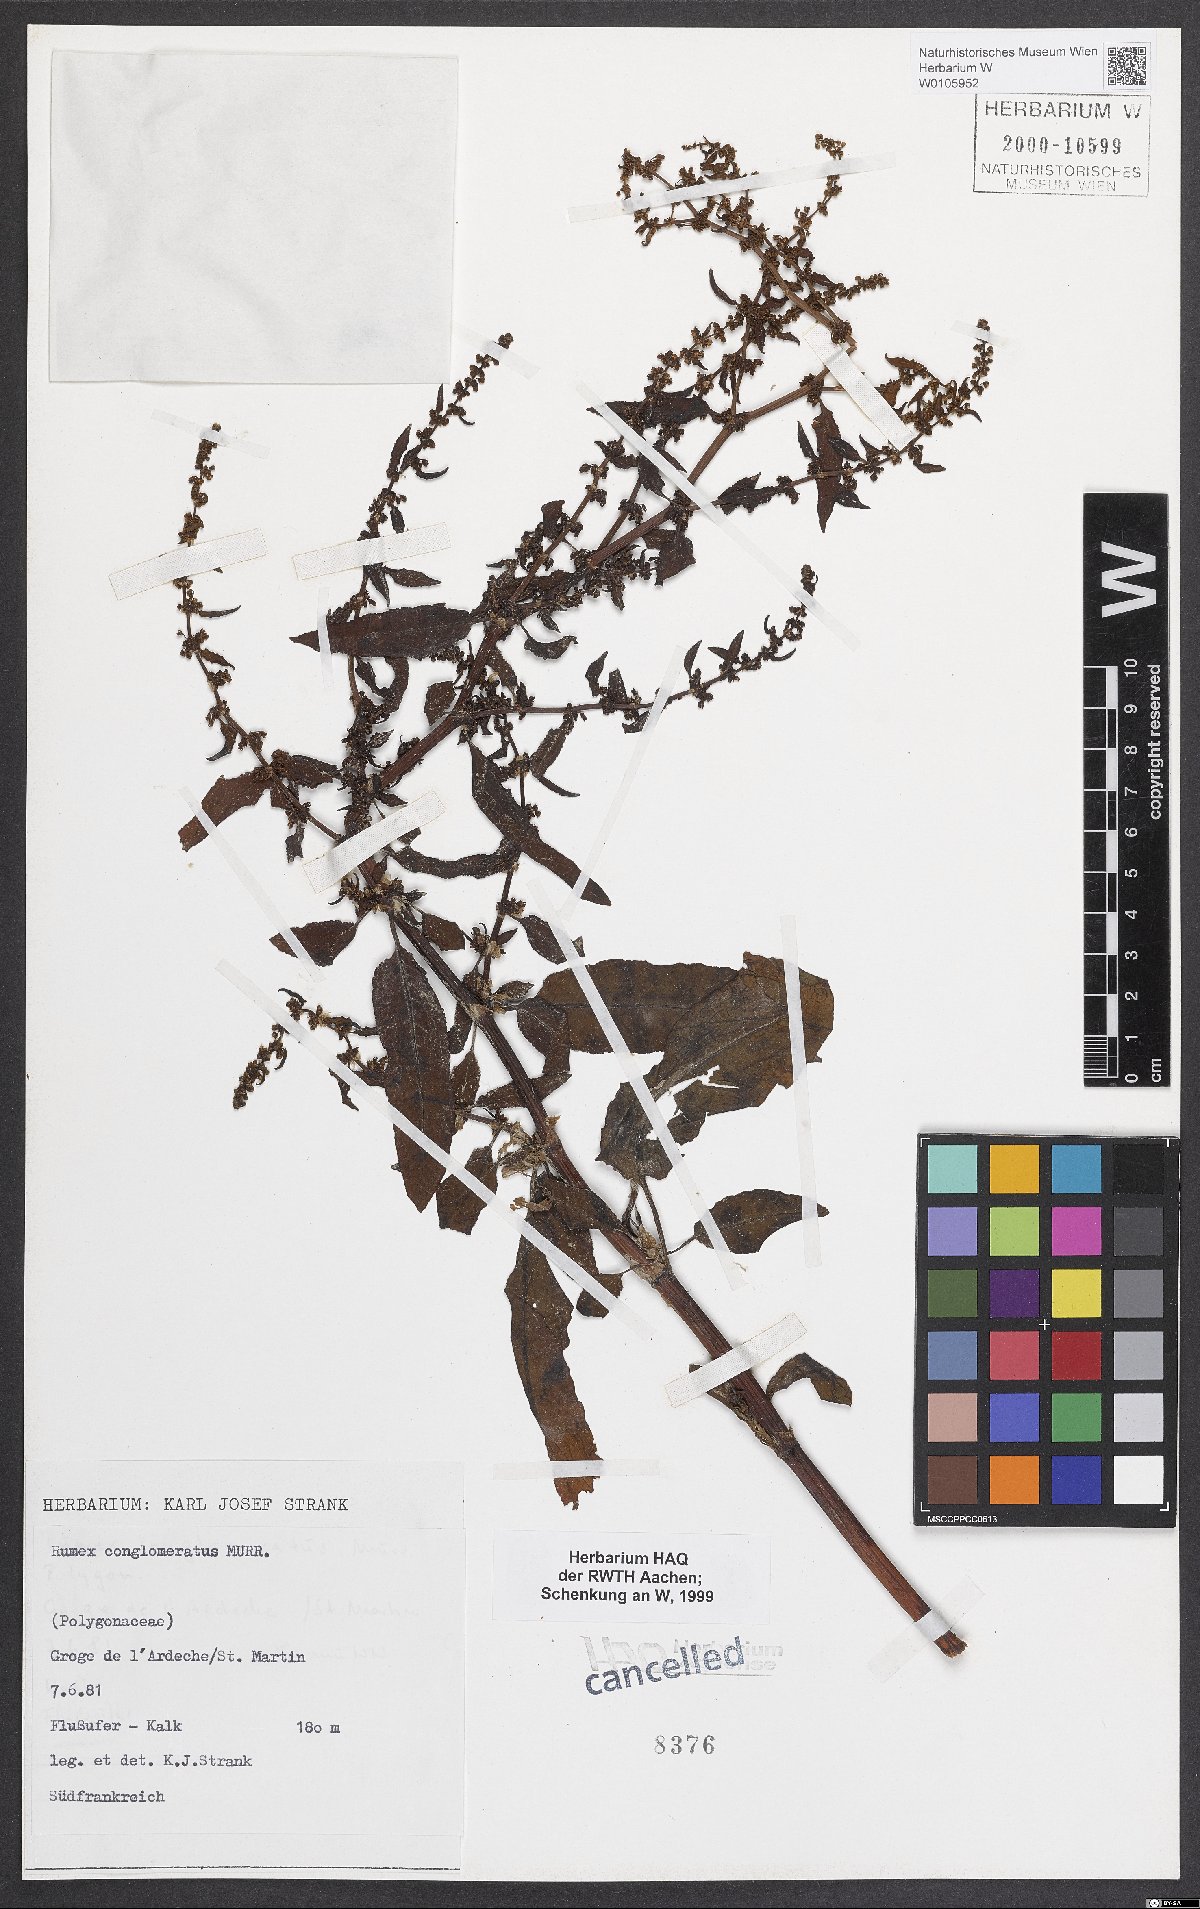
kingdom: Plantae
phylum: Tracheophyta
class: Magnoliopsida
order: Caryophyllales
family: Polygonaceae
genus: Rumex
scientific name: Rumex conglomeratus
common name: Clustered dock
